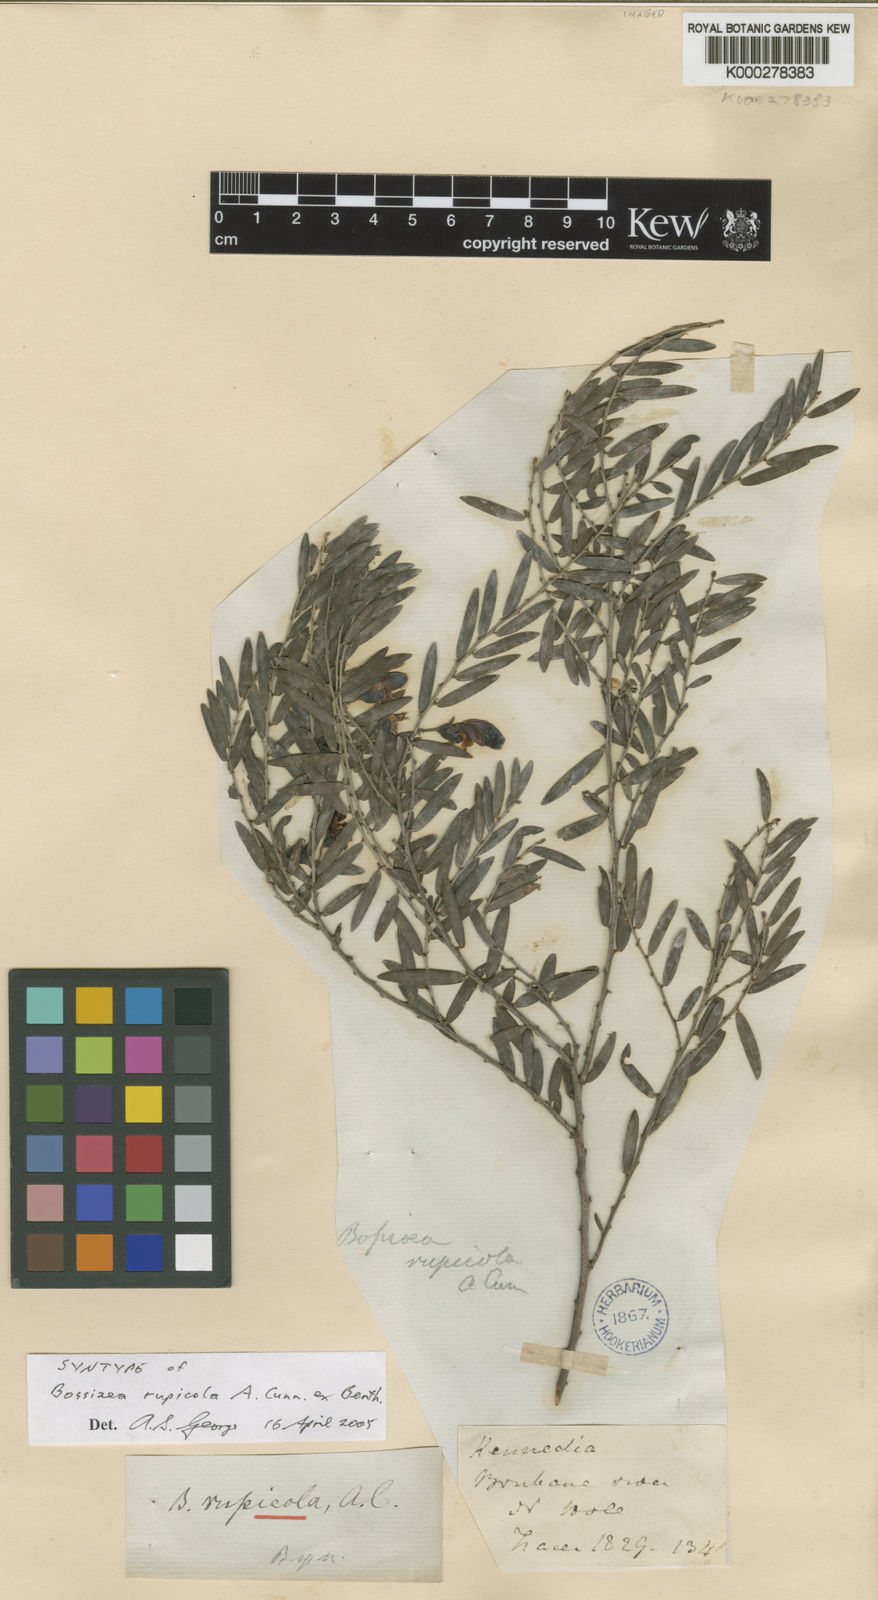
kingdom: Plantae
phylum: Tracheophyta
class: Magnoliopsida
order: Fabales
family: Fabaceae
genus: Bossiaea
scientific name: Bossiaea rupicola
